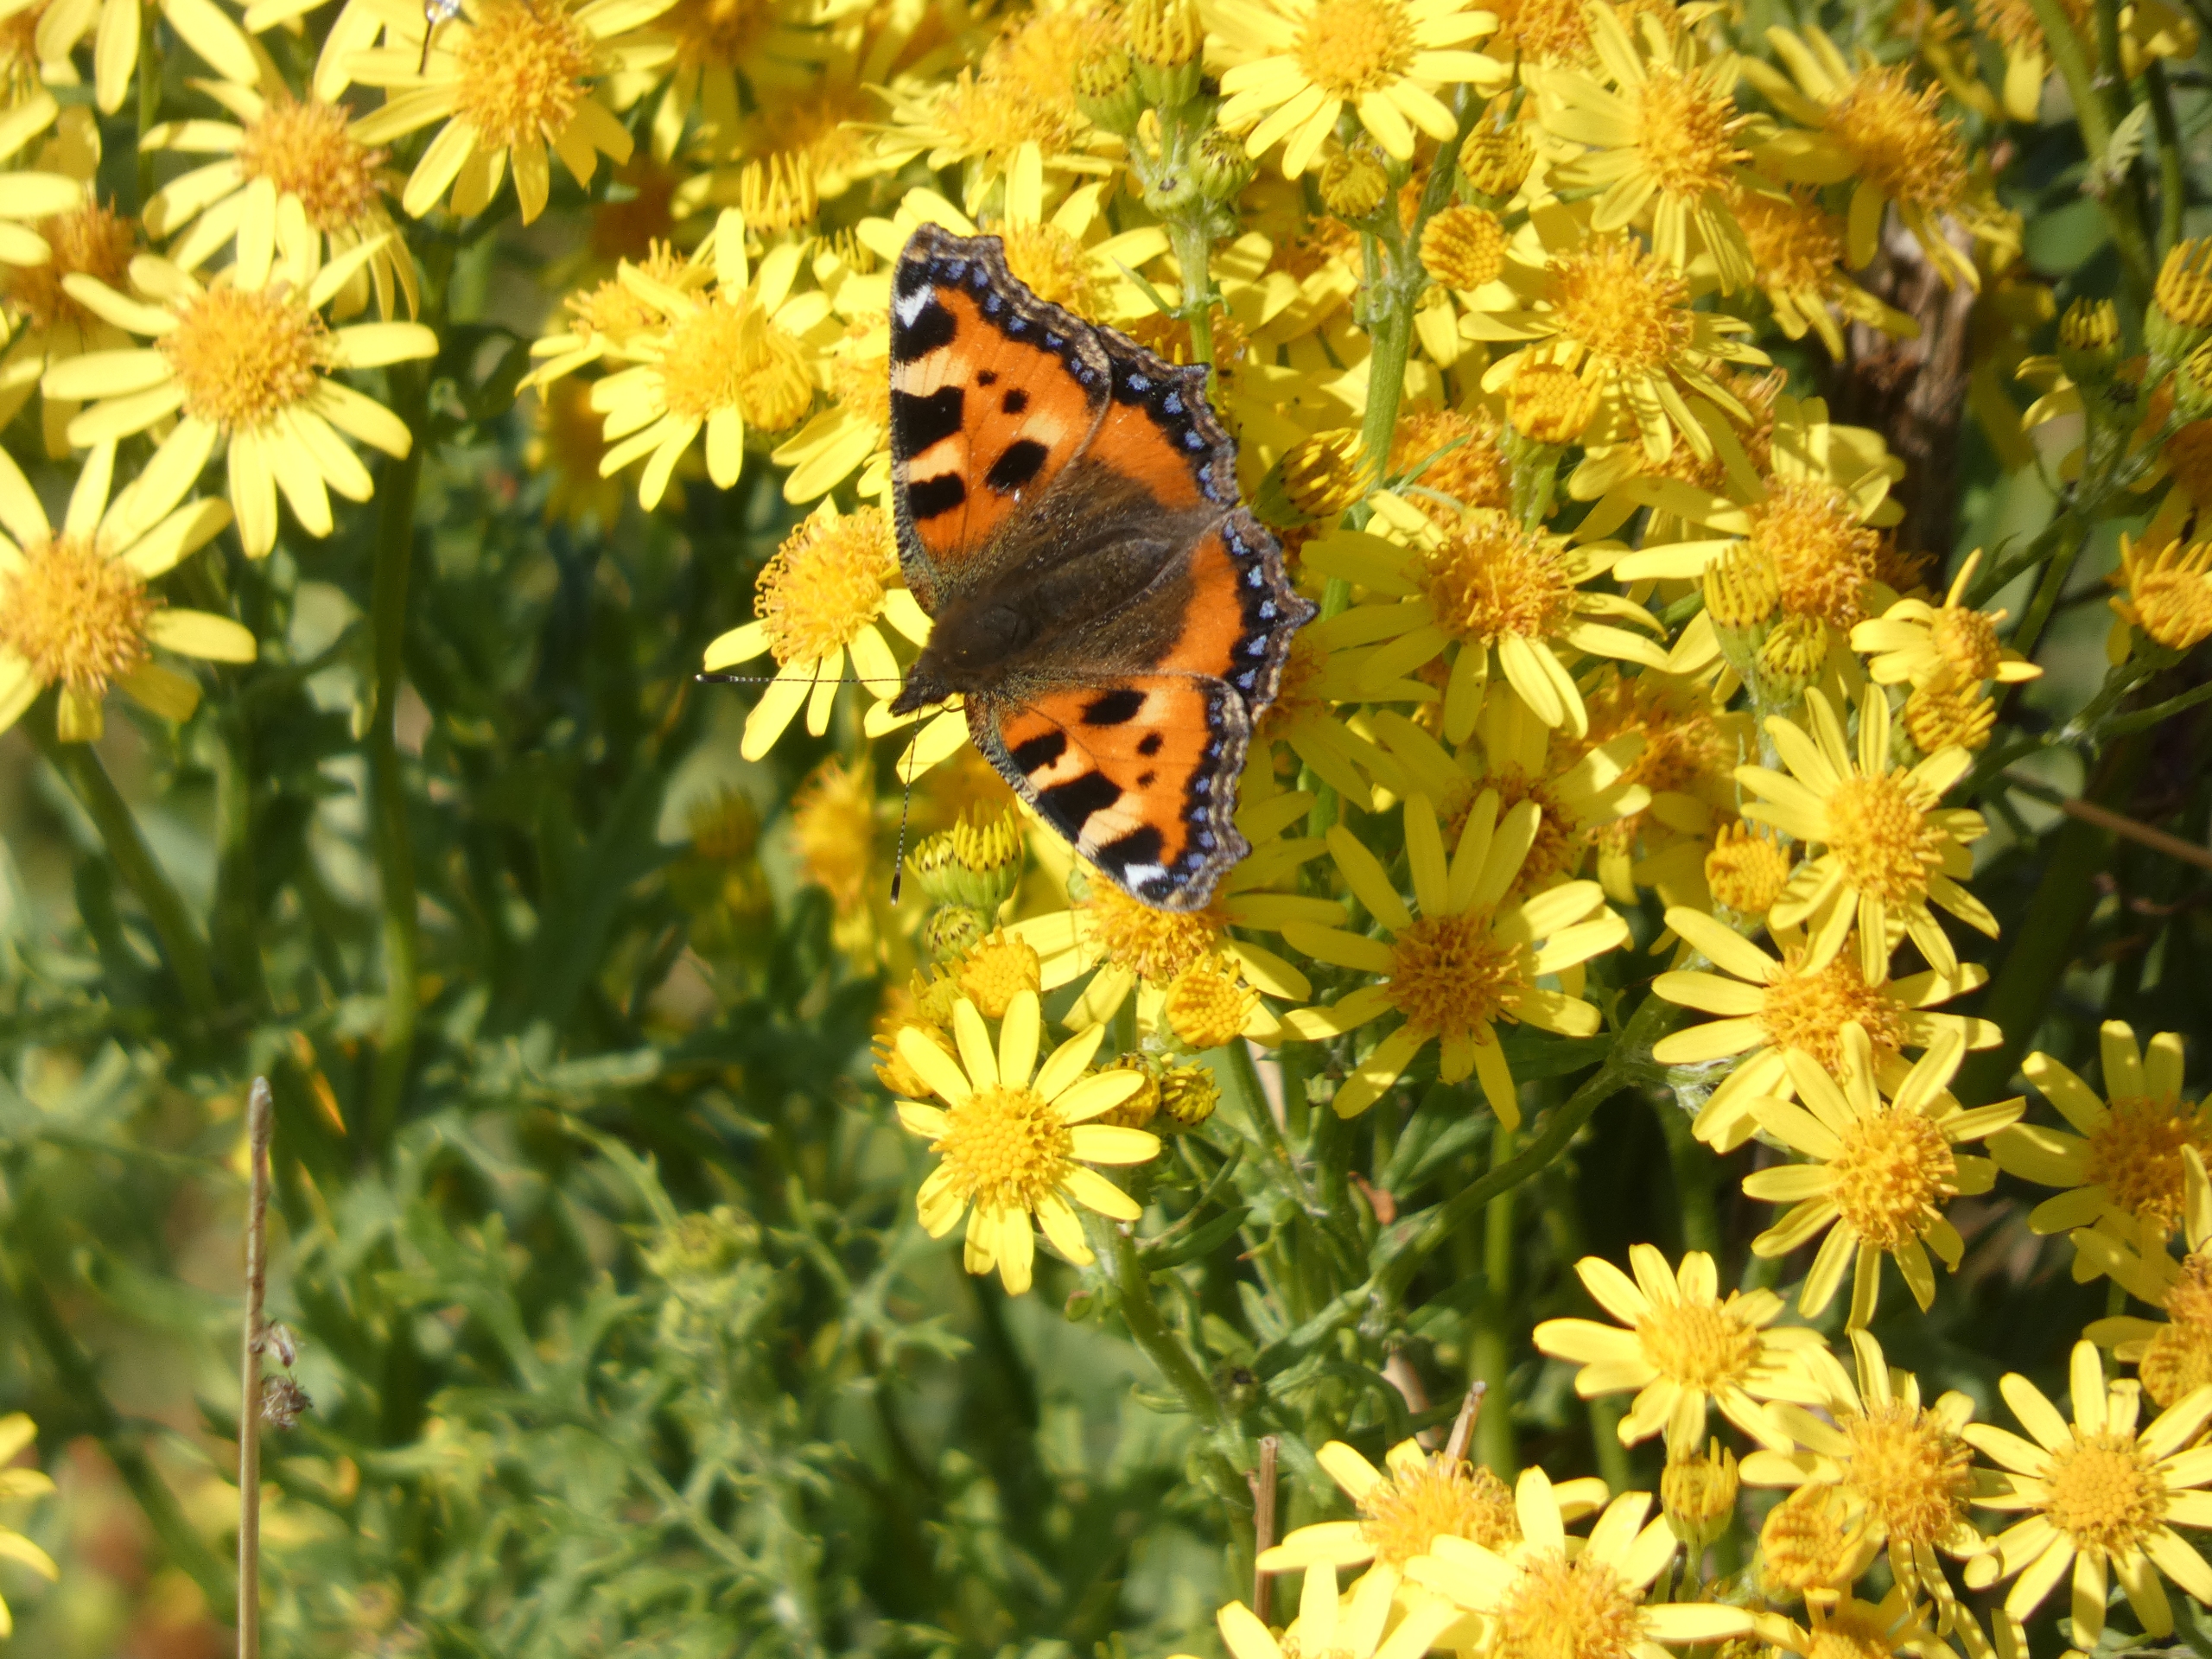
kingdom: Animalia
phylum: Arthropoda
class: Insecta
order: Lepidoptera
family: Nymphalidae
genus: Aglais
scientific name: Aglais urticae
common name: Nældens takvinge
